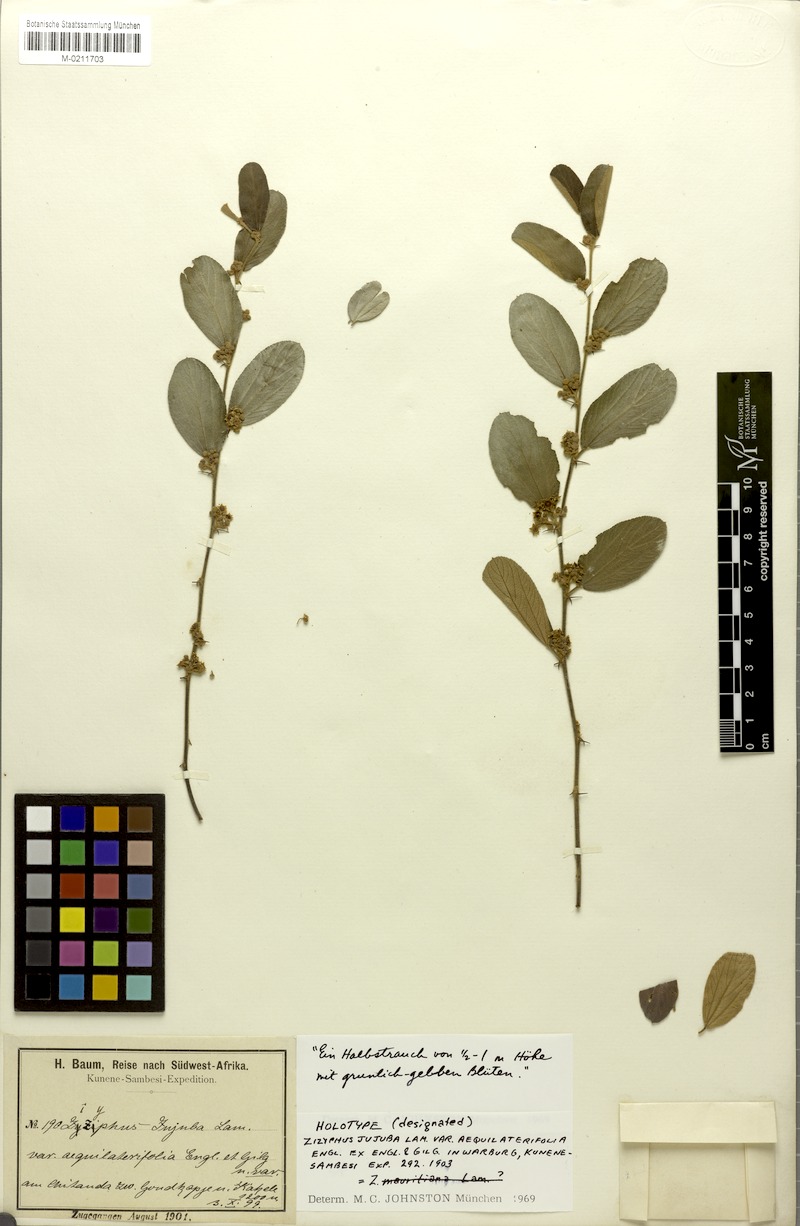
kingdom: Plantae
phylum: Tracheophyta
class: Magnoliopsida
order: Rosales
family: Rhamnaceae
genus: Ziziphus
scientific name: Ziziphus mauritiana
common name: Indian jujube
